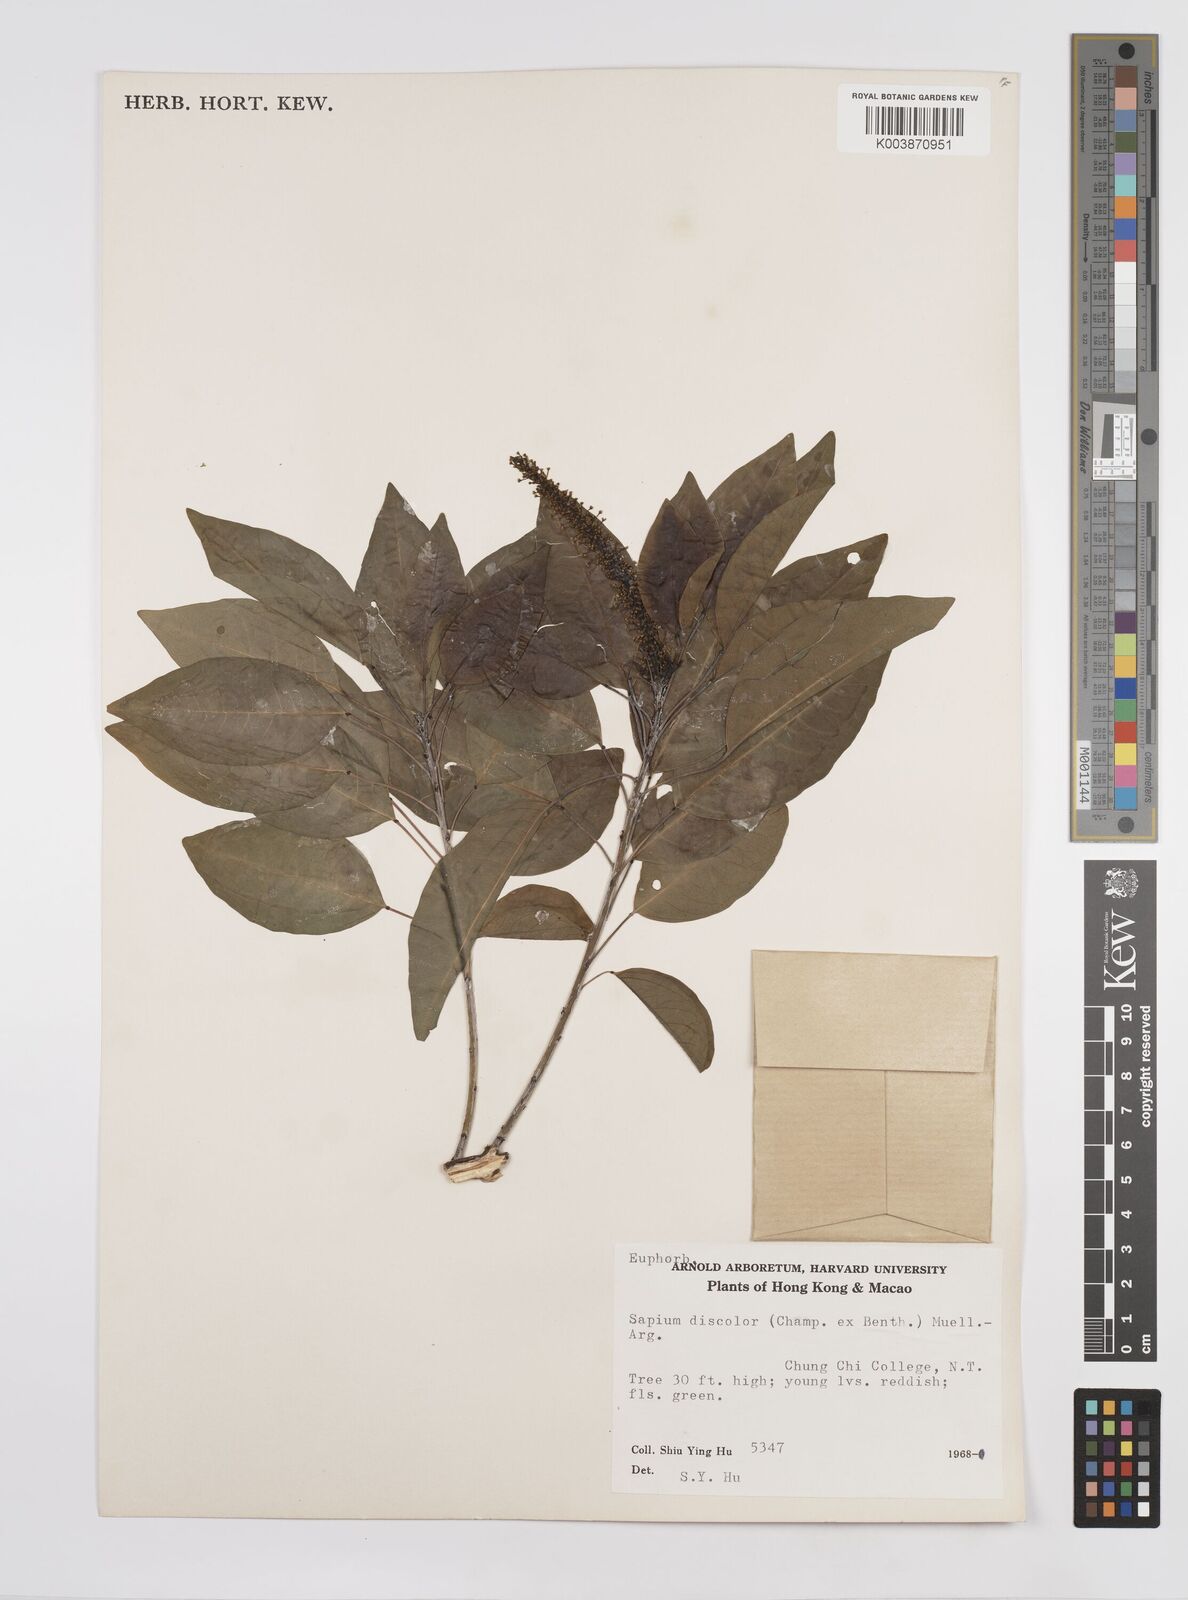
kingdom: Plantae
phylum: Tracheophyta
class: Magnoliopsida
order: Malpighiales
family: Euphorbiaceae
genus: Triadica
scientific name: Triadica cochinchinensis
